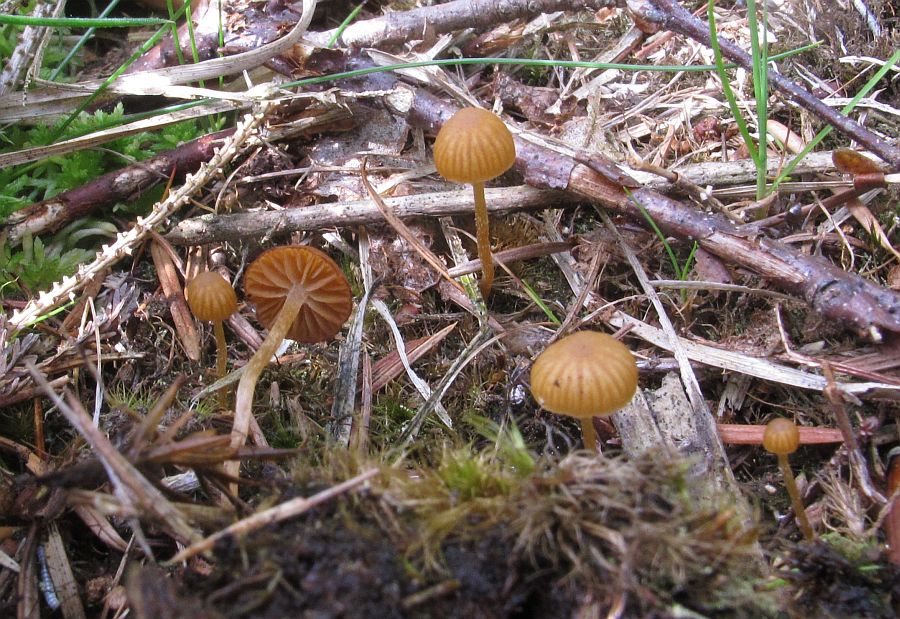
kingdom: Fungi
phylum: Basidiomycota
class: Agaricomycetes
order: Agaricales
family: Hymenogastraceae
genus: Galerina
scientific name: Galerina sphagnicola
